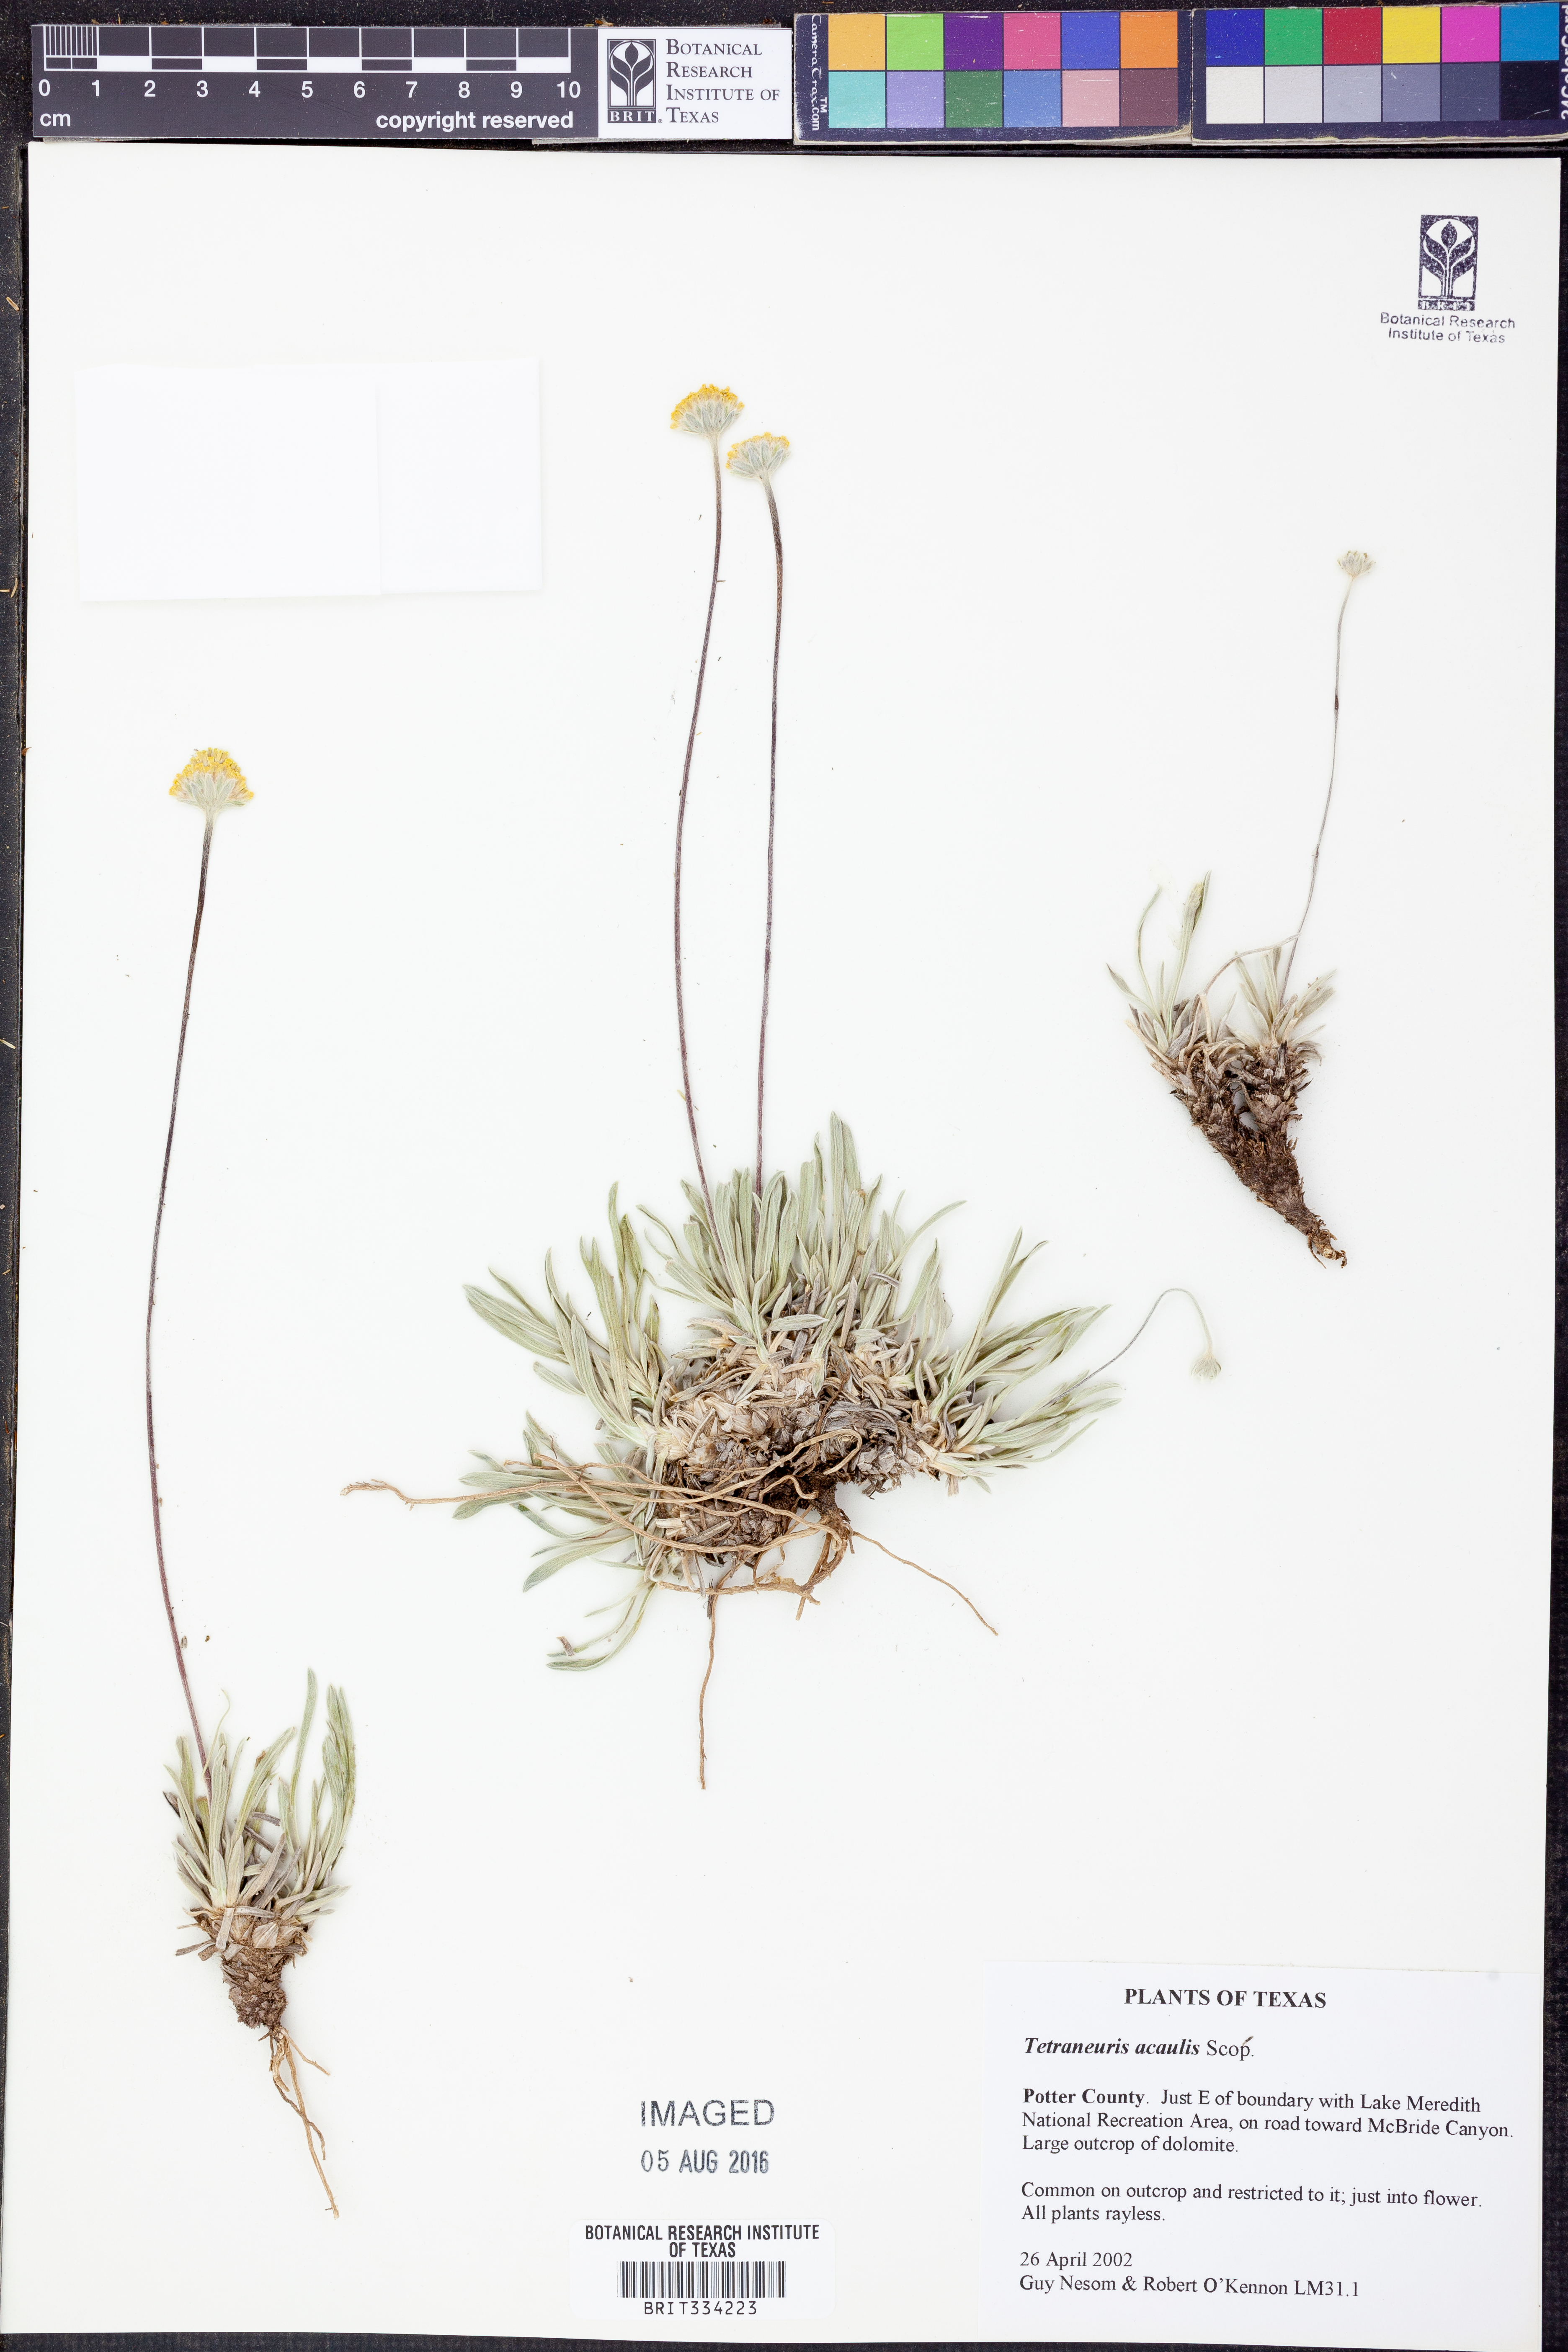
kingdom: Plantae
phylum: Tracheophyta
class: Magnoliopsida
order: Asterales
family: Asteraceae
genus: Tetraneuris
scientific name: Tetraneuris acaulis
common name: Butte marigold
